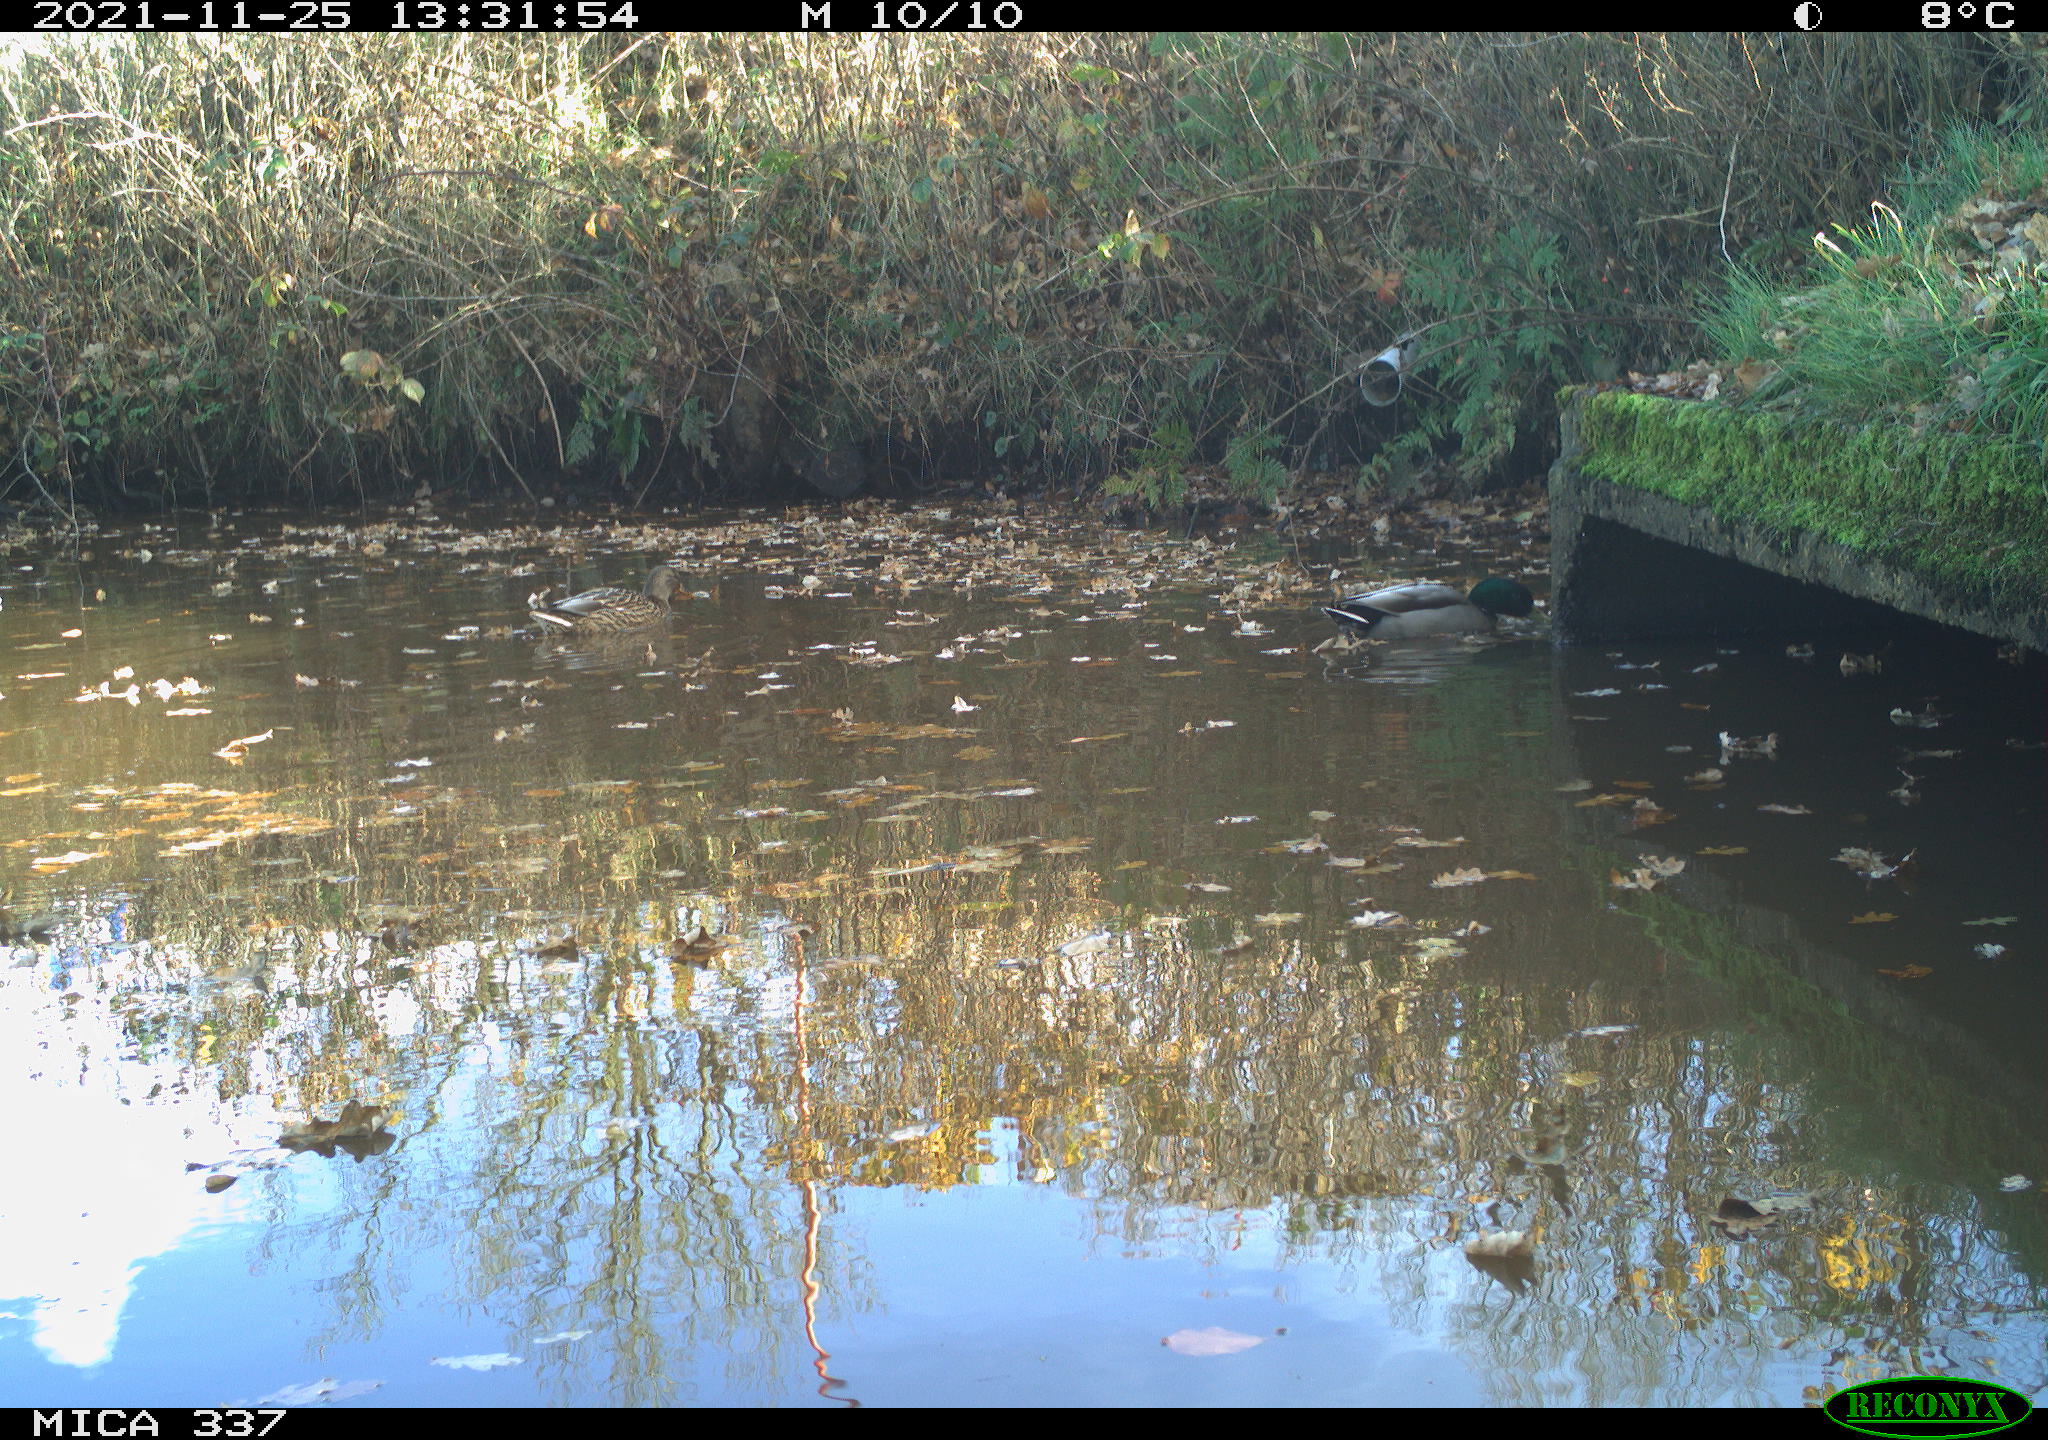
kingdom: Animalia
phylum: Chordata
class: Aves
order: Anseriformes
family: Anatidae
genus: Anas
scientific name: Anas platyrhynchos
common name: Mallard
